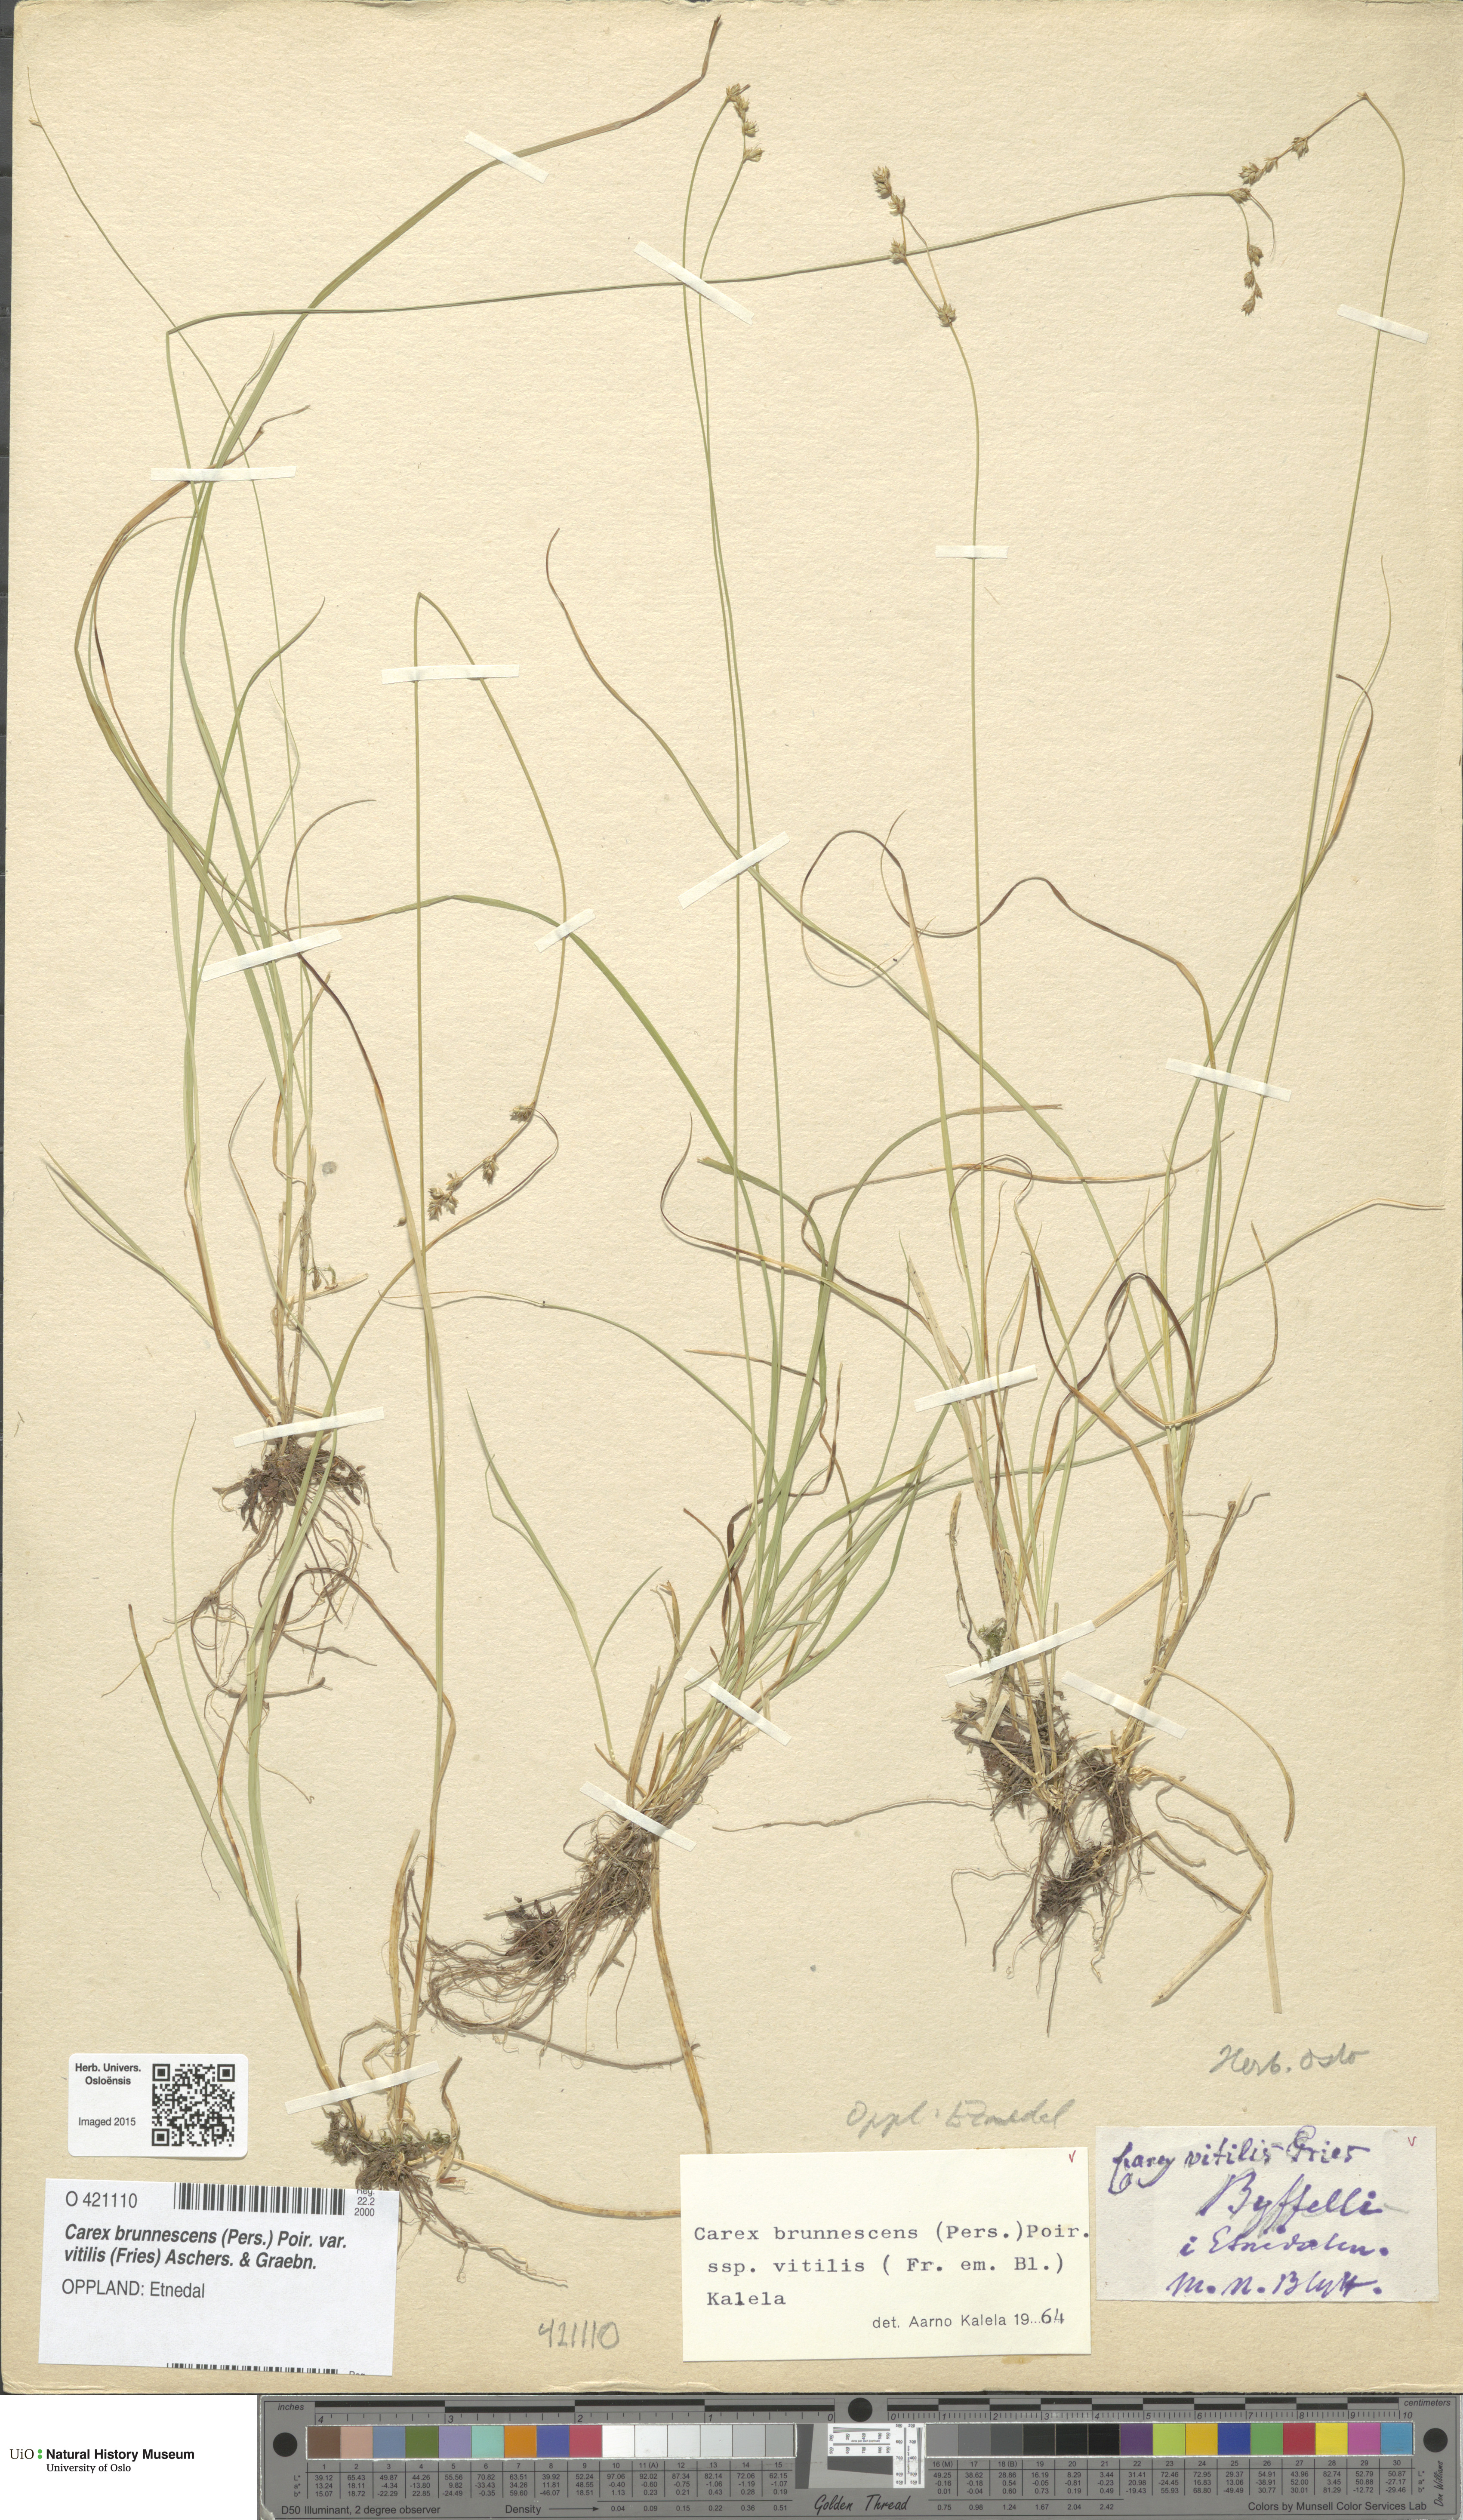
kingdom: Plantae
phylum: Tracheophyta
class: Liliopsida
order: Poales
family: Cyperaceae
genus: Carex
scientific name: Carex brunnescens
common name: Brown sedge
